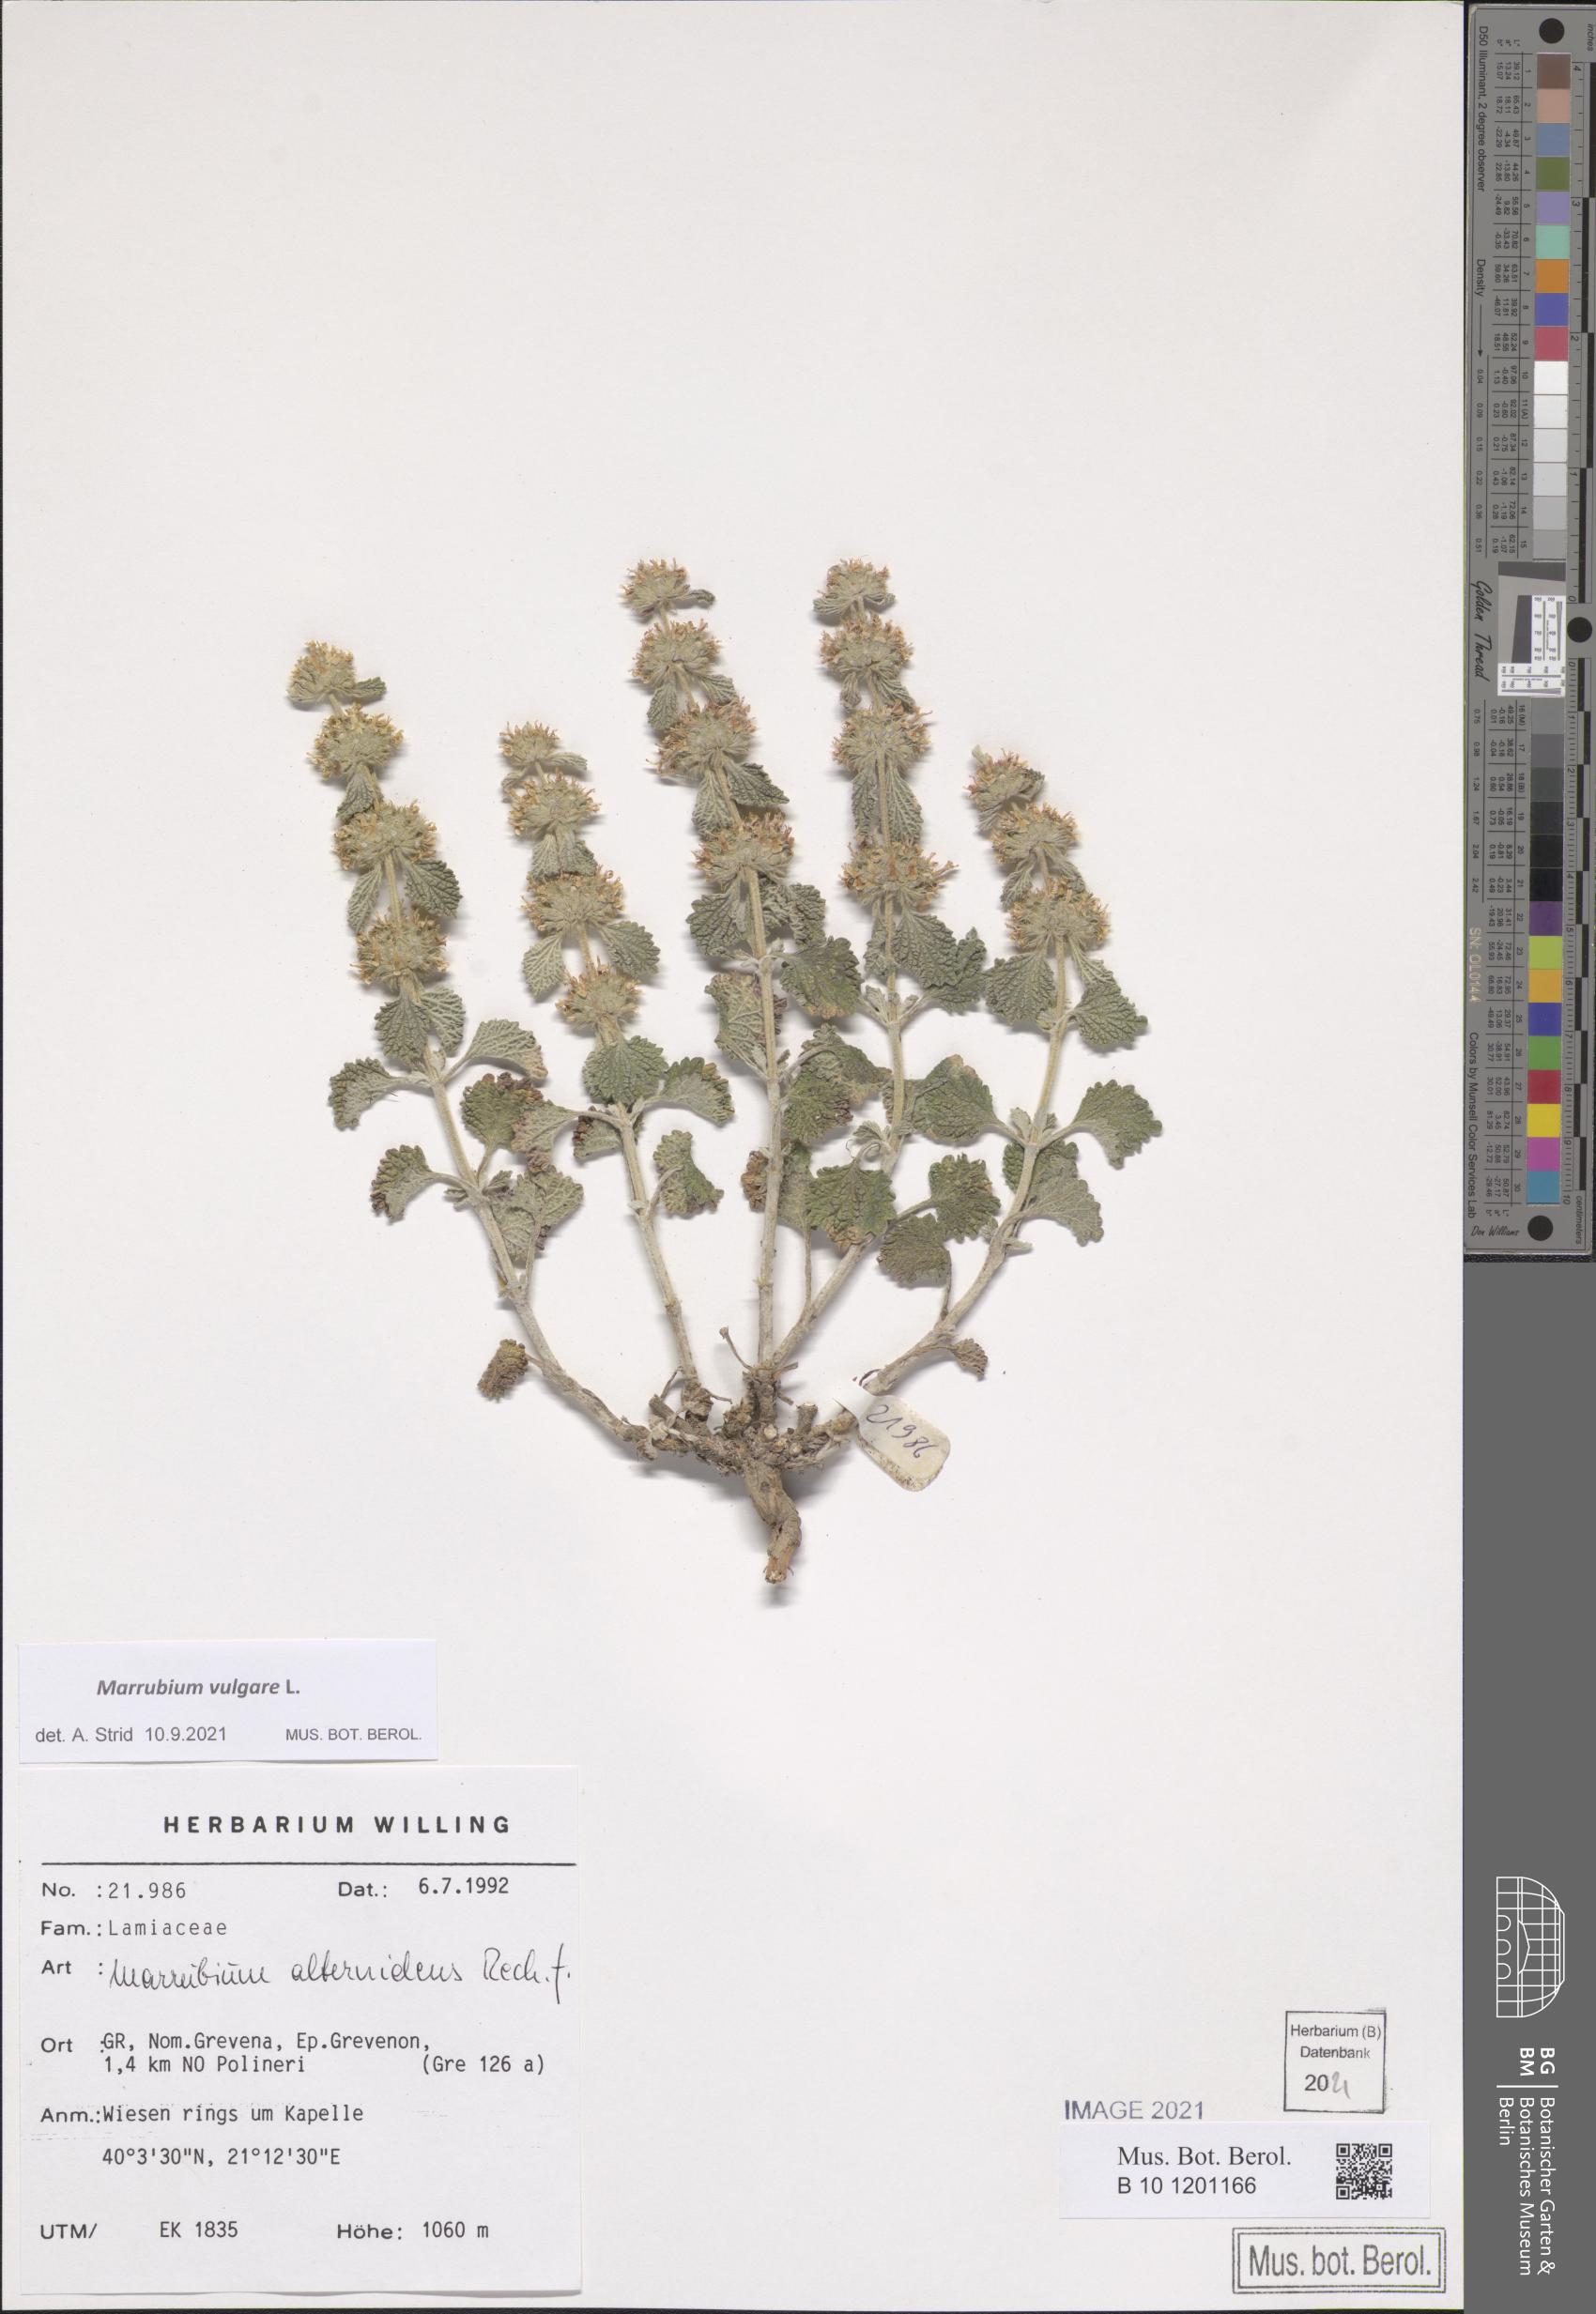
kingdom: Plantae
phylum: Tracheophyta
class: Magnoliopsida
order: Lamiales
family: Lamiaceae
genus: Marrubium
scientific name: Marrubium vulgare
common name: Horehound
